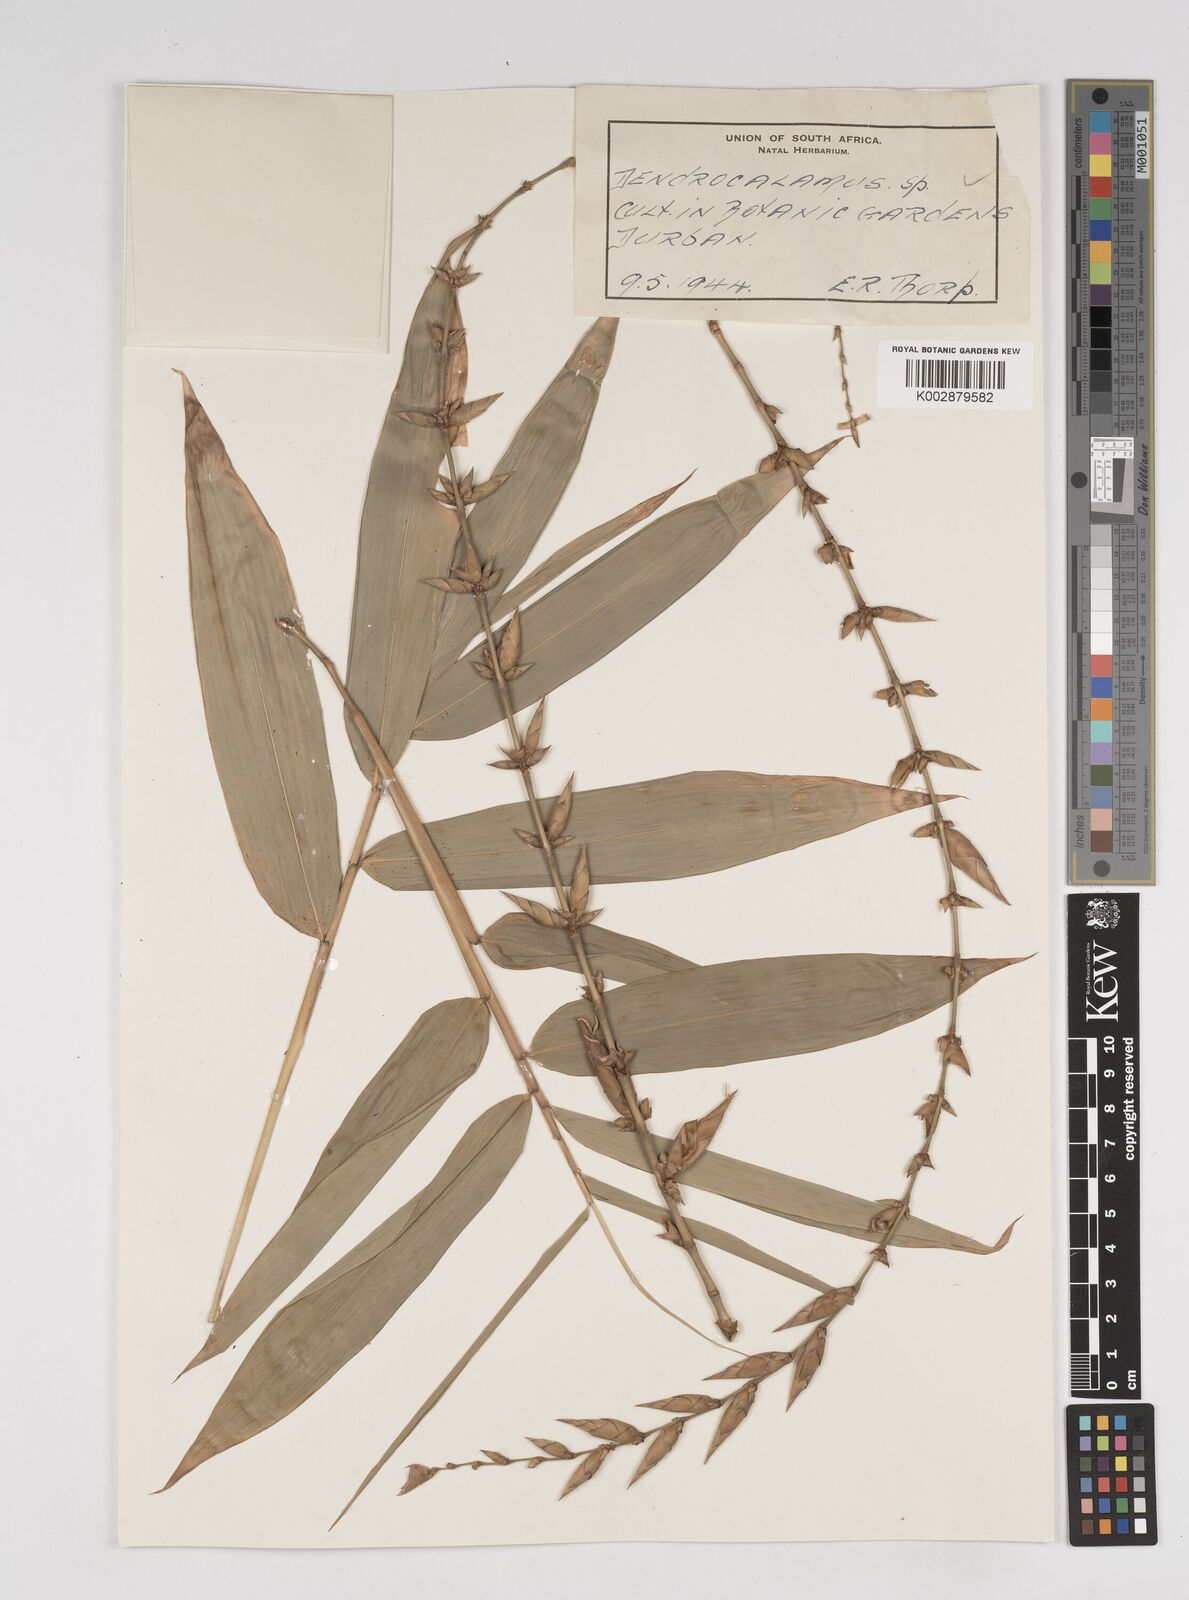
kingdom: Plantae
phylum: Tracheophyta
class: Liliopsida
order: Poales
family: Poaceae
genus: Dendrocalamus
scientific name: Dendrocalamus strictus
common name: Male bamboo
